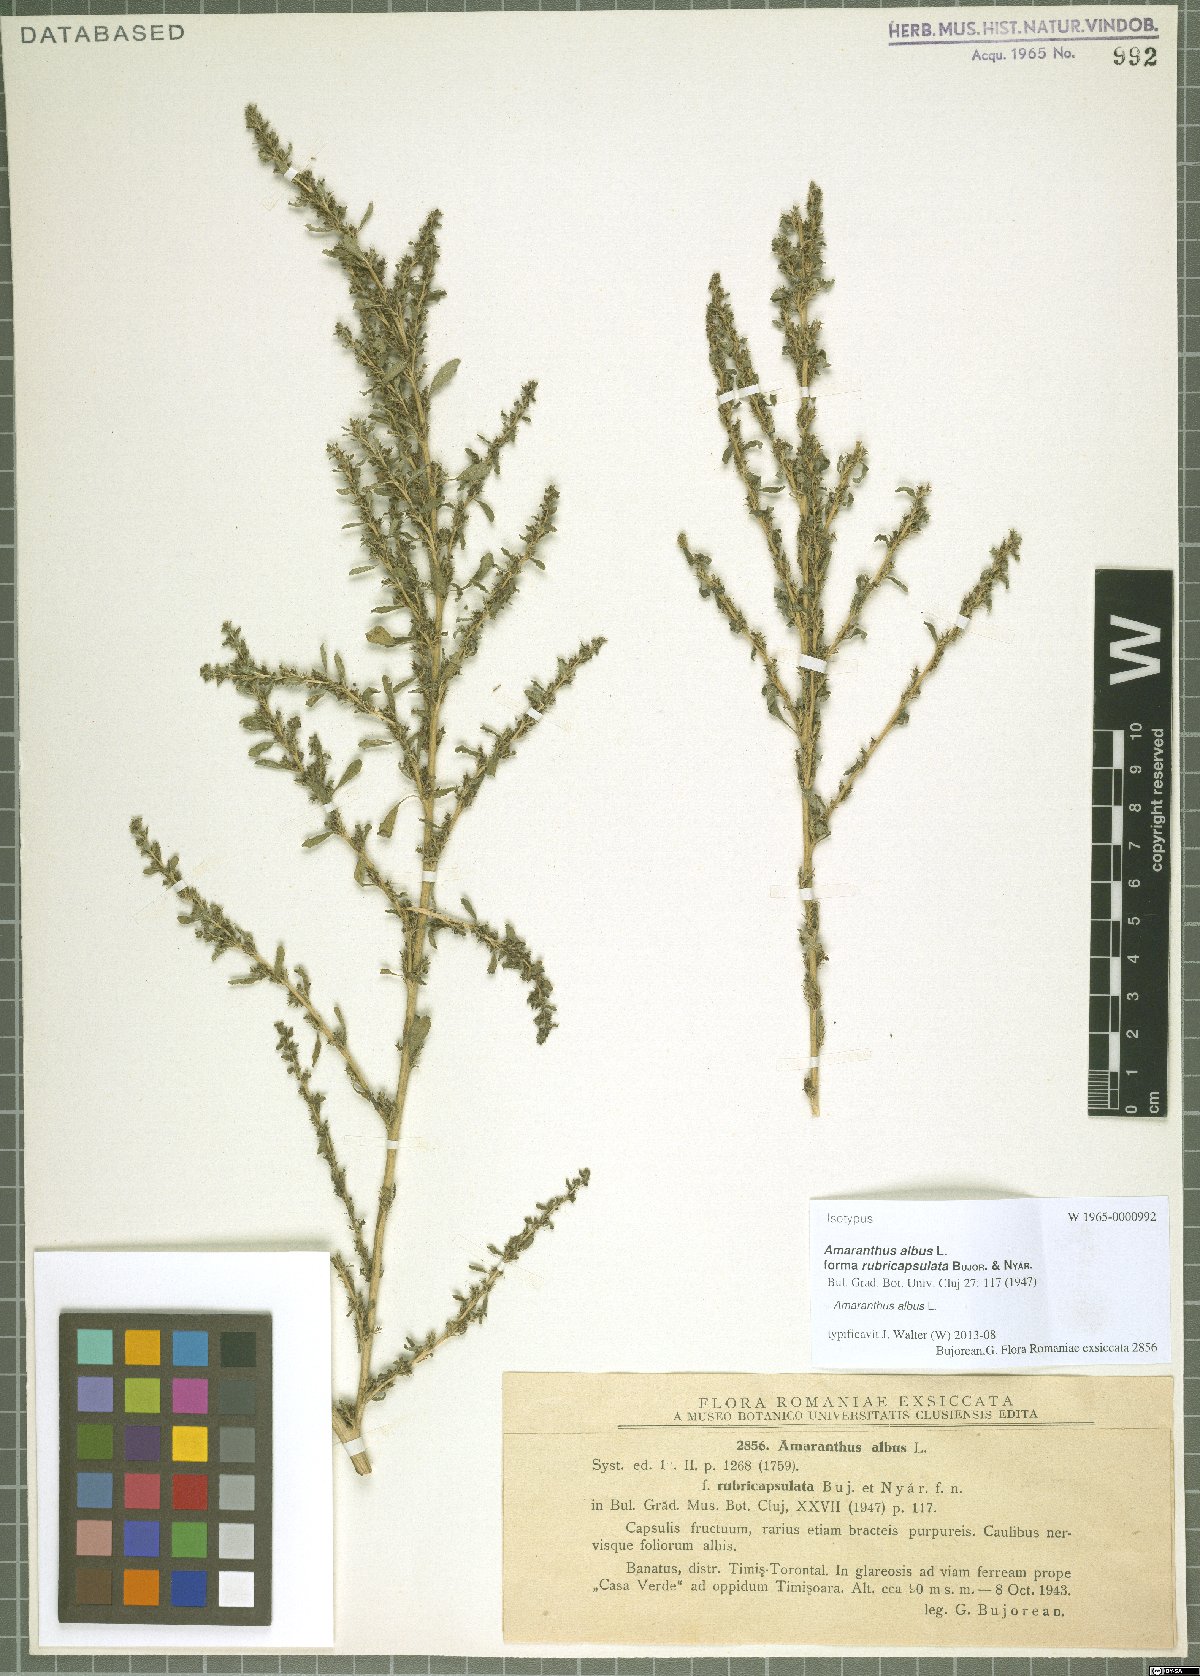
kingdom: Plantae
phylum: Tracheophyta
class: Magnoliopsida
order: Caryophyllales
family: Amaranthaceae
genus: Amaranthus
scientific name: Amaranthus albus
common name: White pigweed
